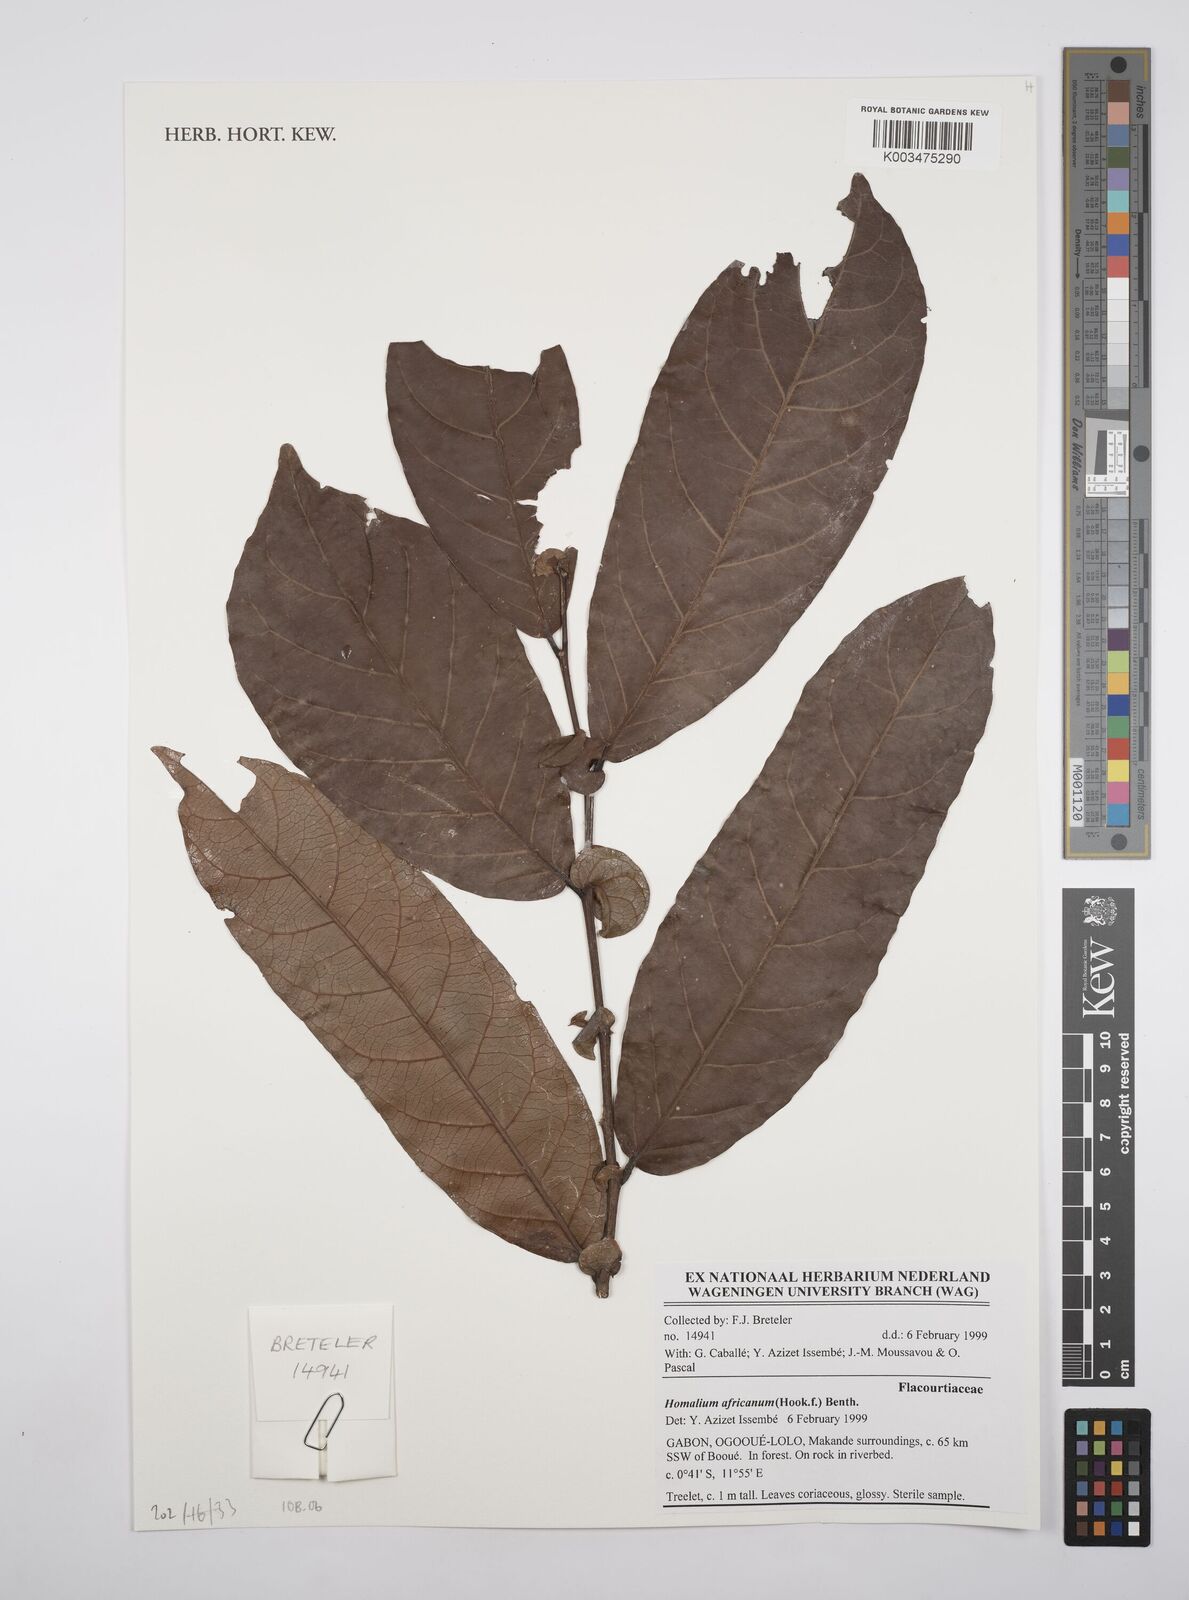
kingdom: Plantae
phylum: Tracheophyta
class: Magnoliopsida
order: Malpighiales
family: Salicaceae
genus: Homalium
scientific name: Homalium africanum
